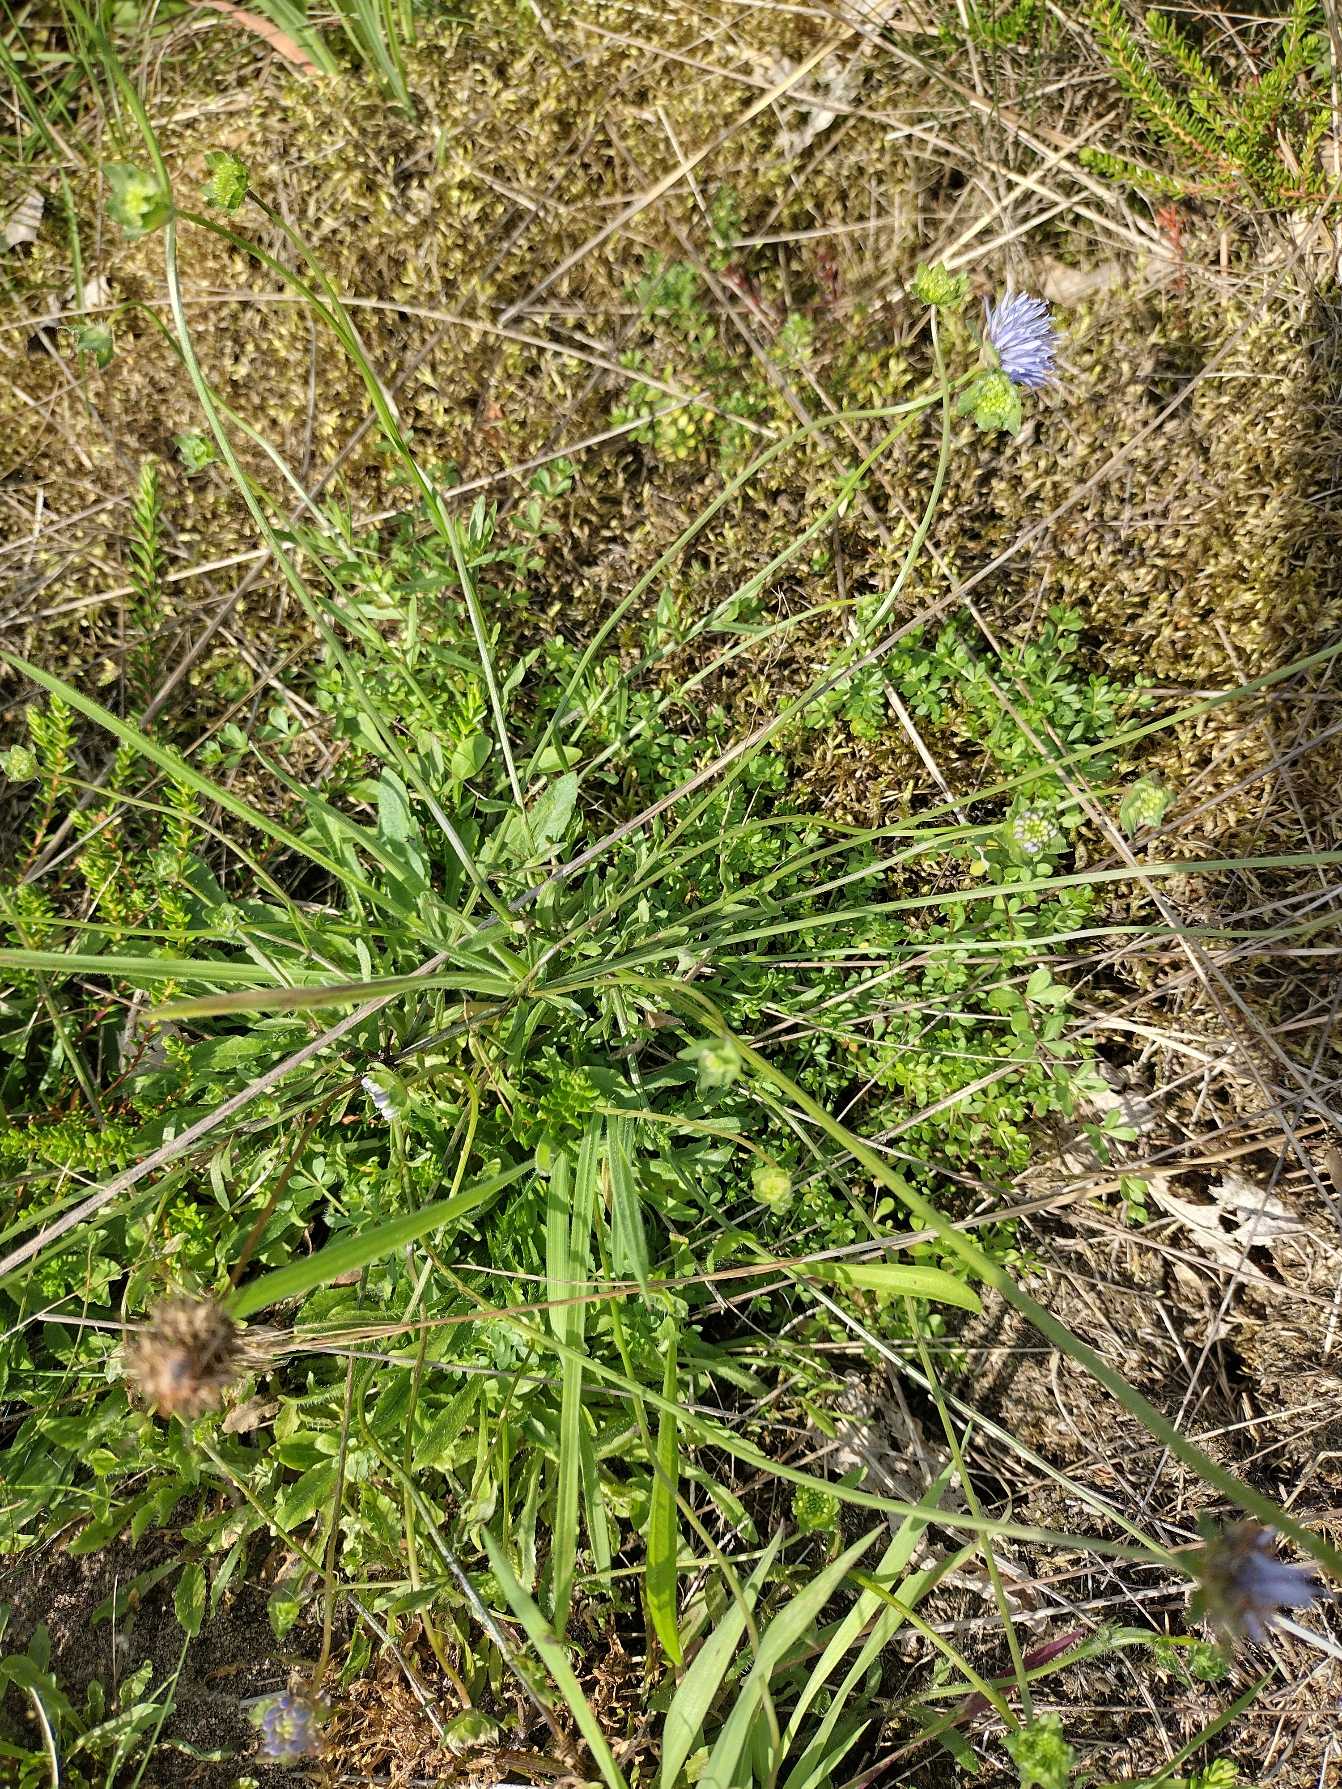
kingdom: Plantae
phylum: Tracheophyta
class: Magnoliopsida
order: Asterales
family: Campanulaceae
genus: Jasione
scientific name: Jasione montana
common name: Blåmunke
